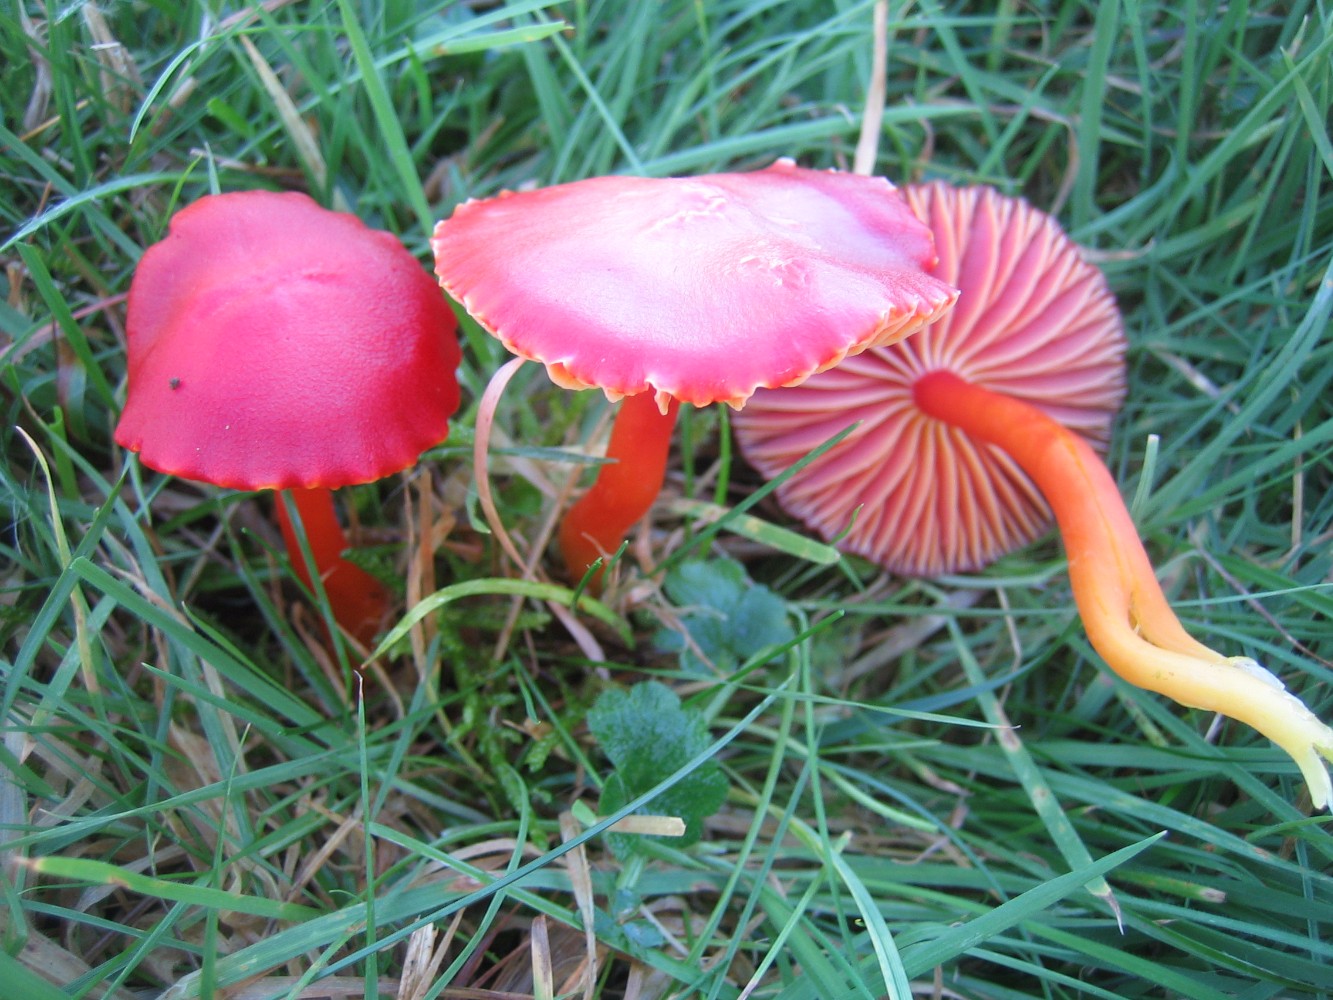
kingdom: Fungi
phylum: Basidiomycota
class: Agaricomycetes
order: Agaricales
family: Hygrophoraceae
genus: Hygrocybe
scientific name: Hygrocybe coccinea
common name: cinnober-vokshat
